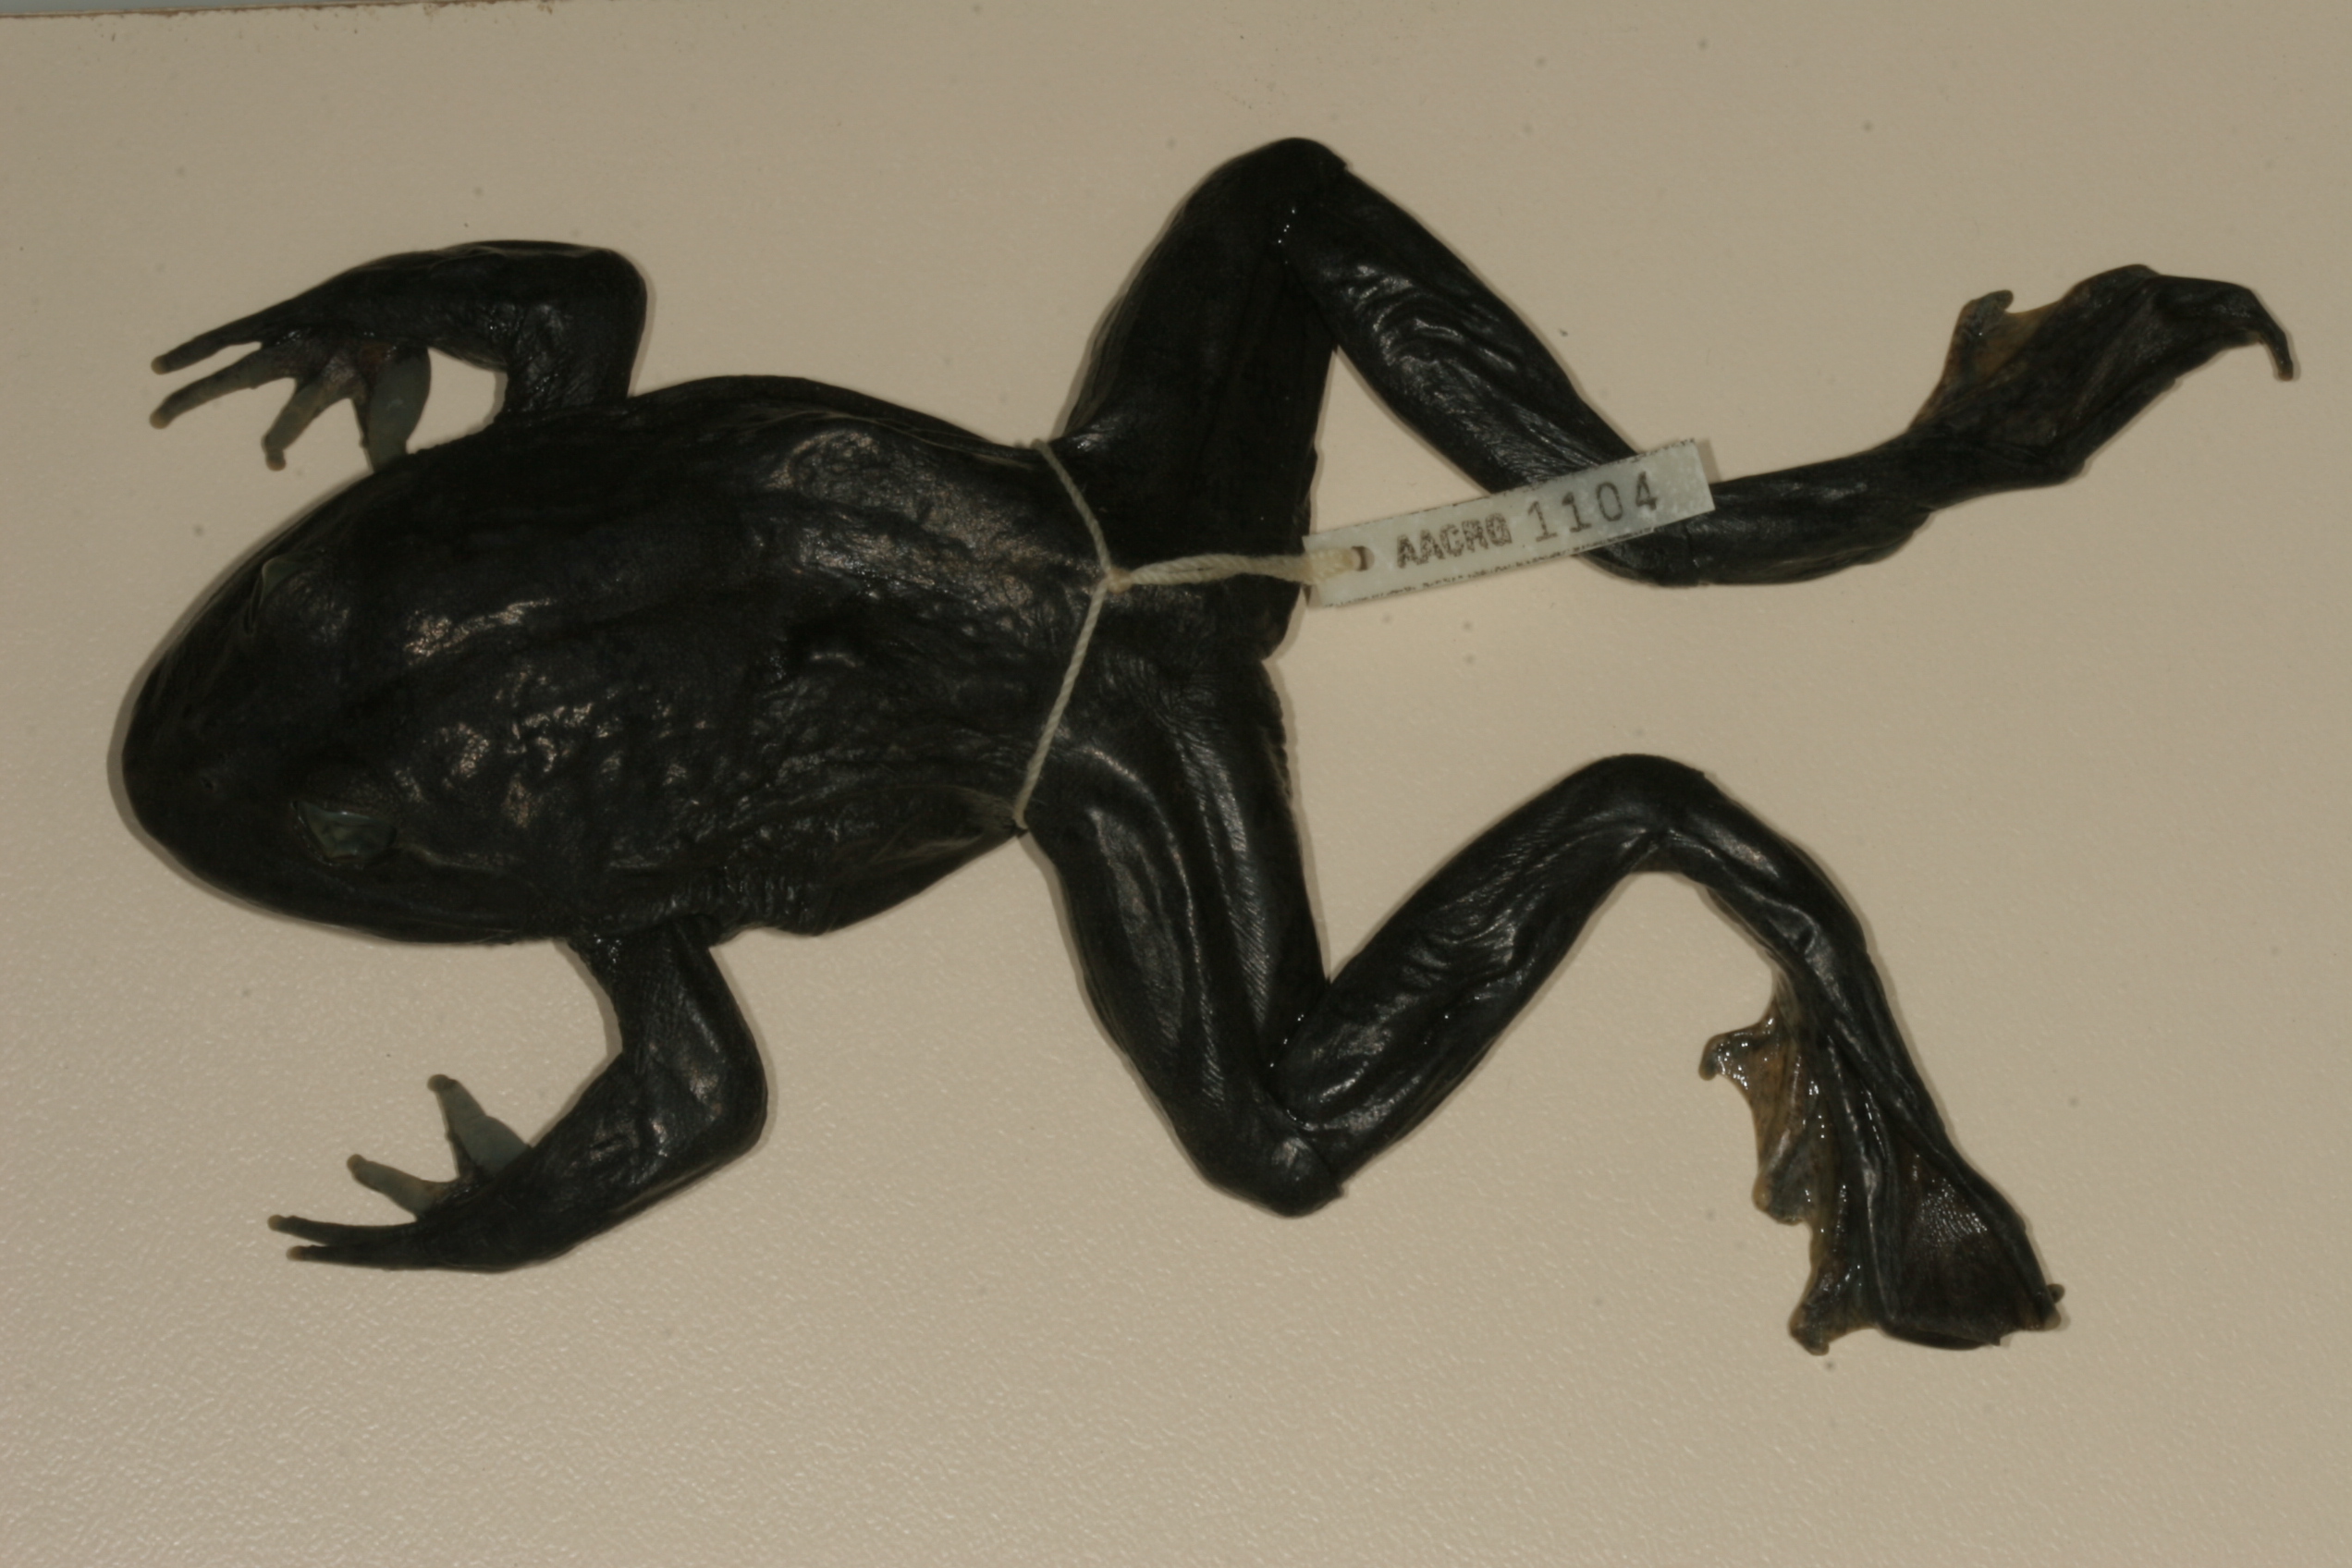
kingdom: Animalia
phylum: Chordata
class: Amphibia
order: Anura
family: Pyxicephalidae
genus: Amietia
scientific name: Amietia vertebralis
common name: Drakensberg stream frog
